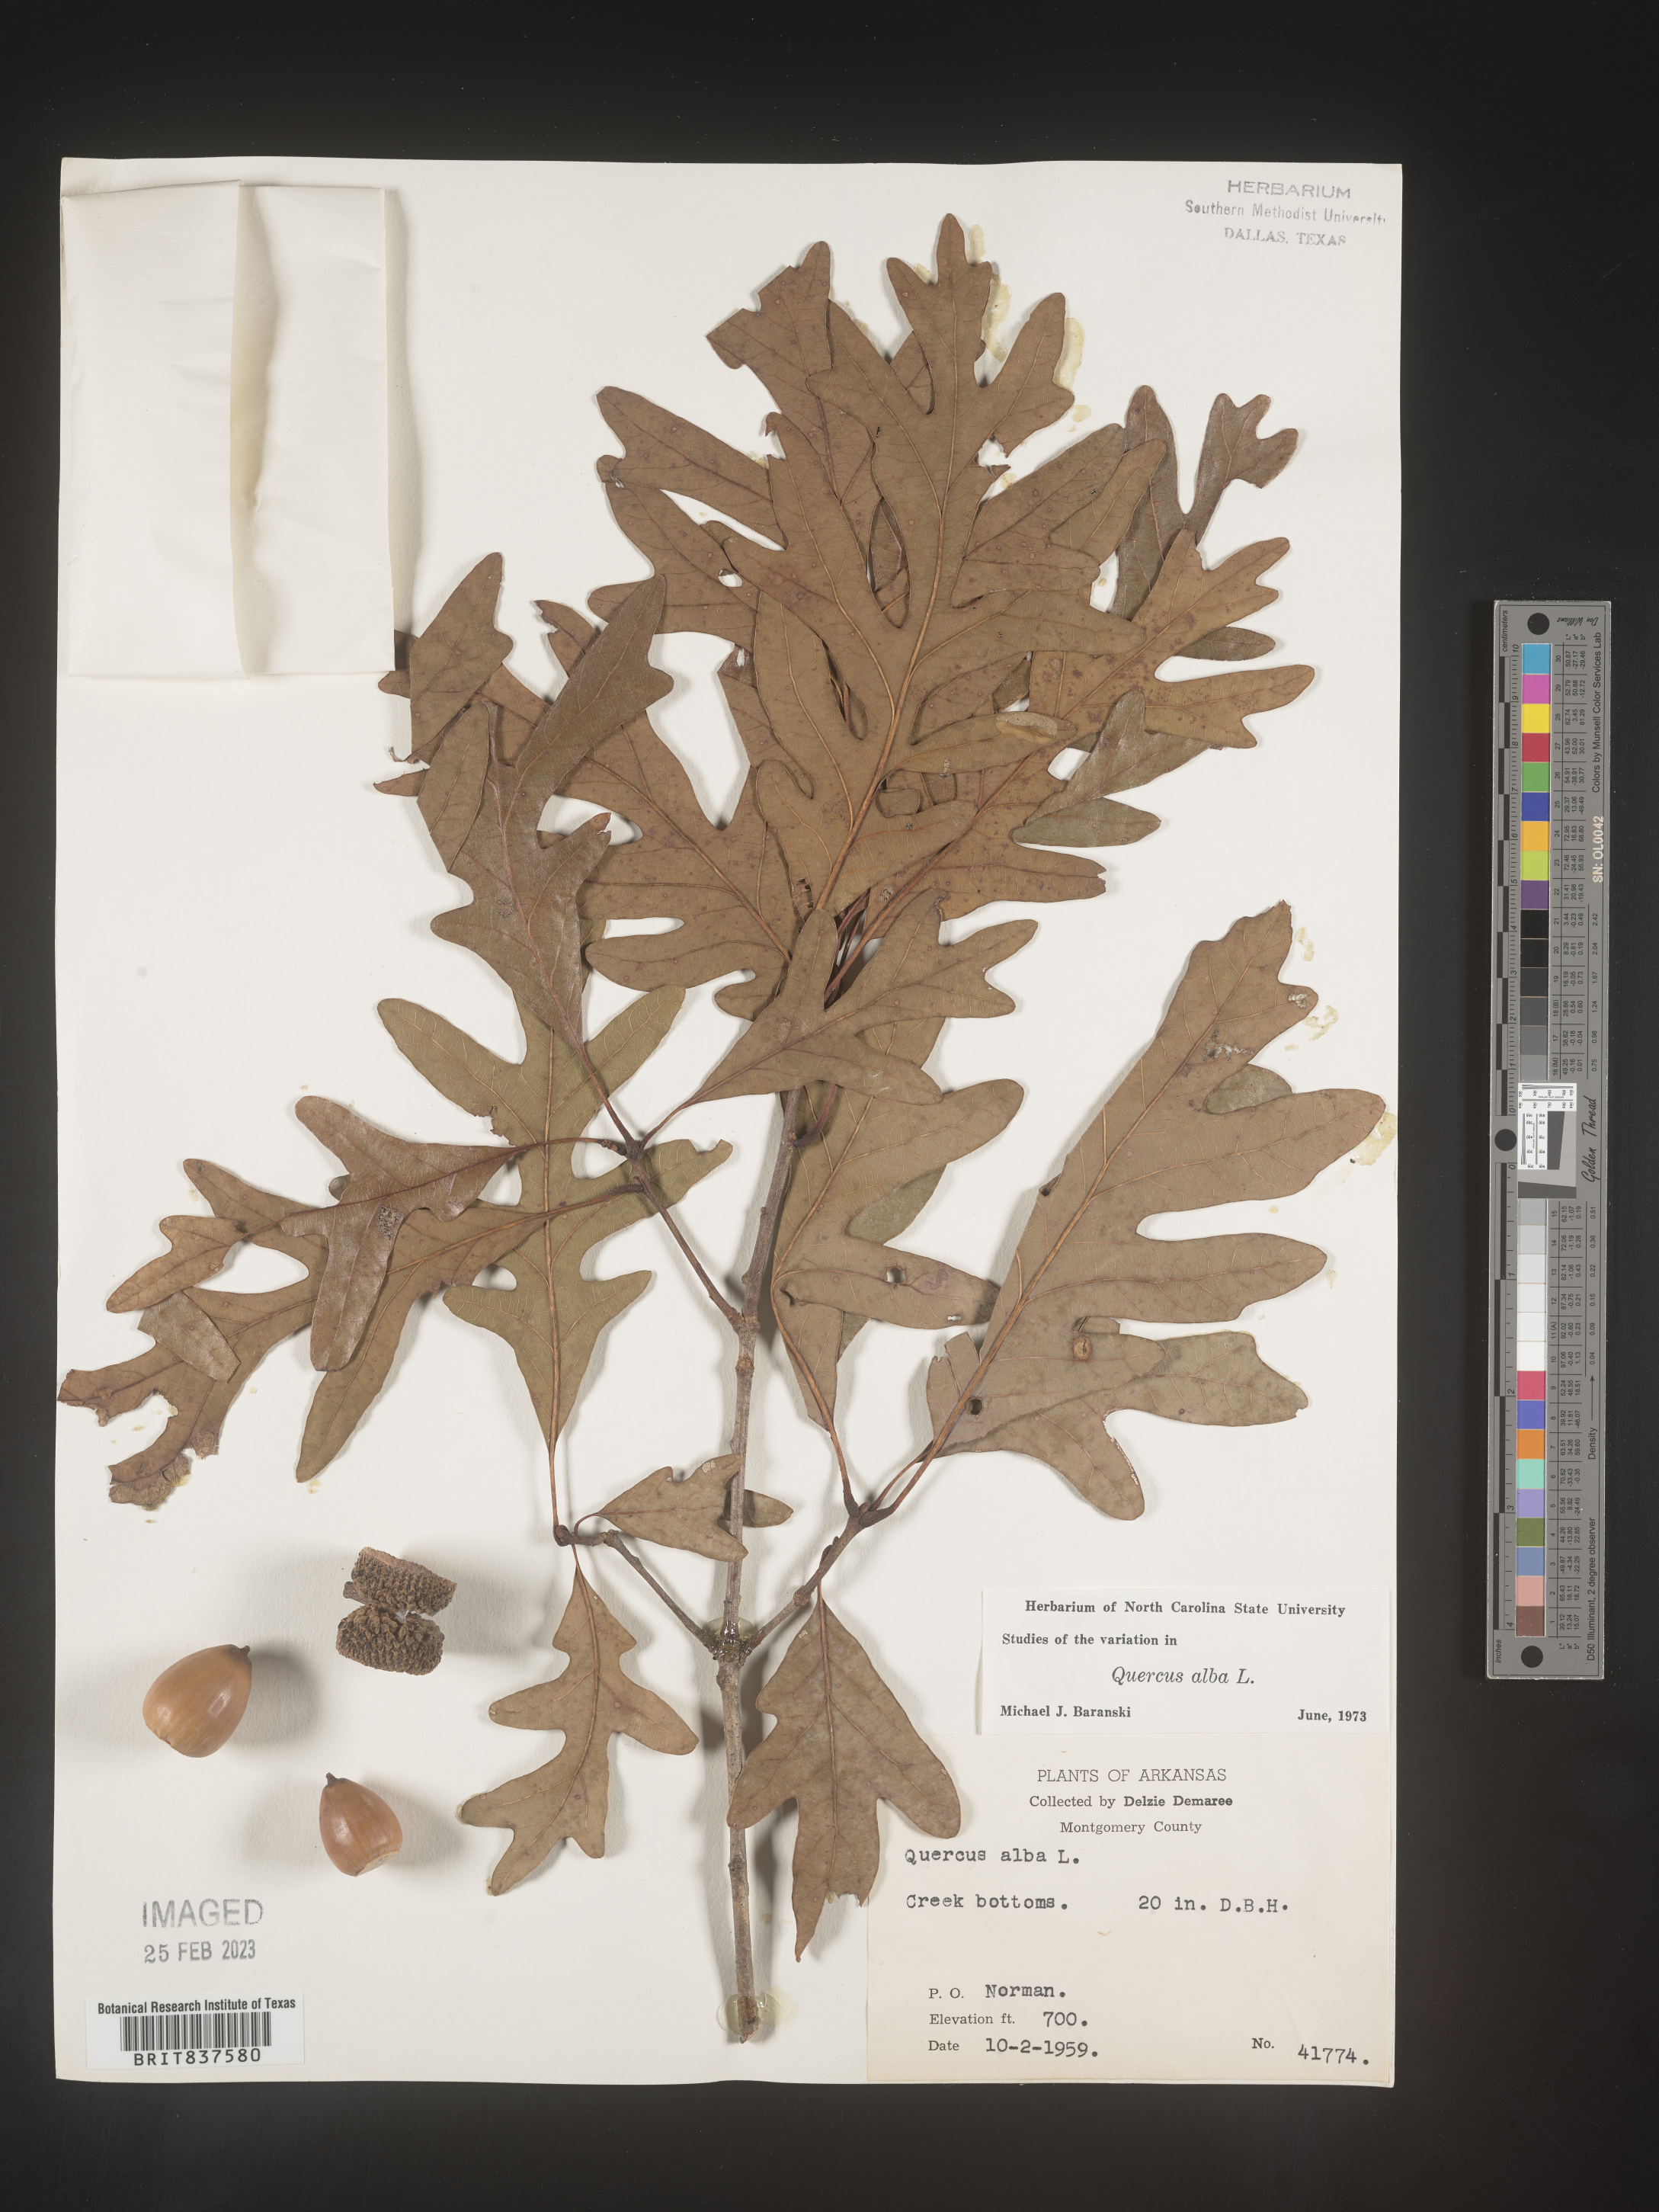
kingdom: Plantae
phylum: Tracheophyta
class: Magnoliopsida
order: Fagales
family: Fagaceae
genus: Quercus
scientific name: Quercus alba
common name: White oak
